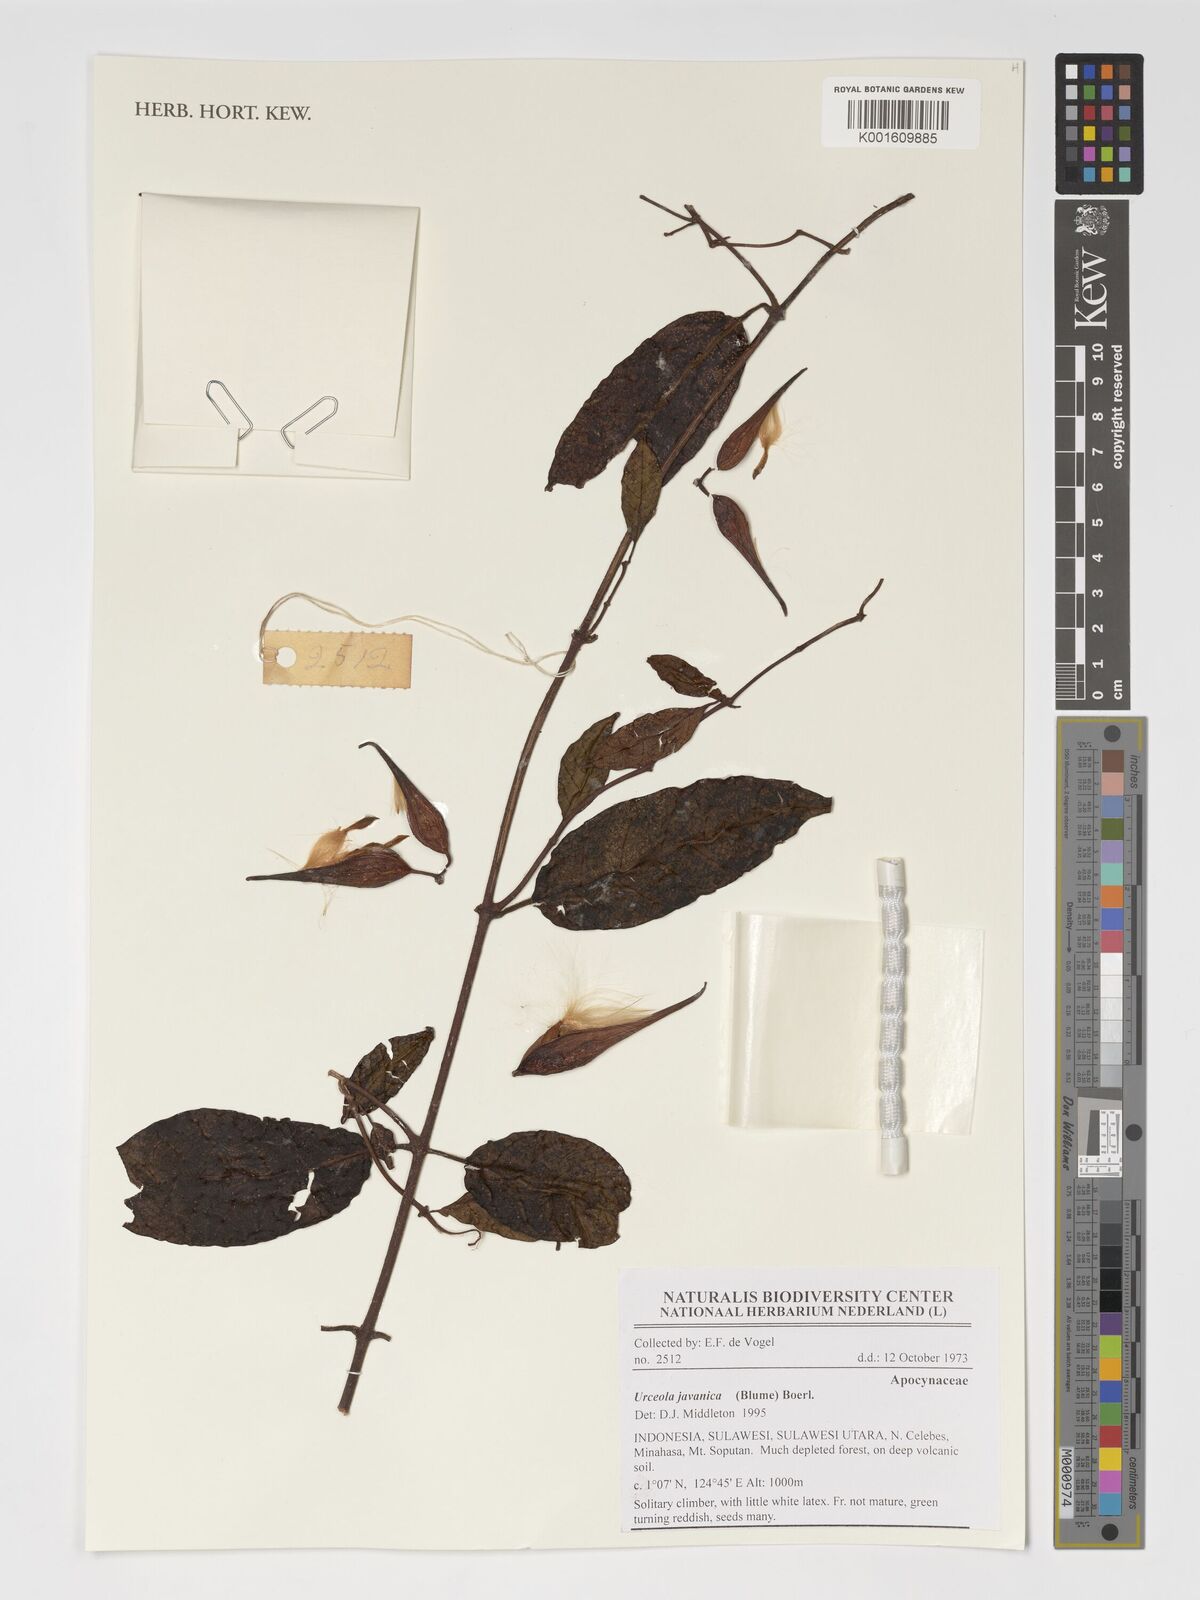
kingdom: Plantae
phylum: Tracheophyta
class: Magnoliopsida
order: Gentianales
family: Apocynaceae
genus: Urceola
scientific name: Urceola javanica
